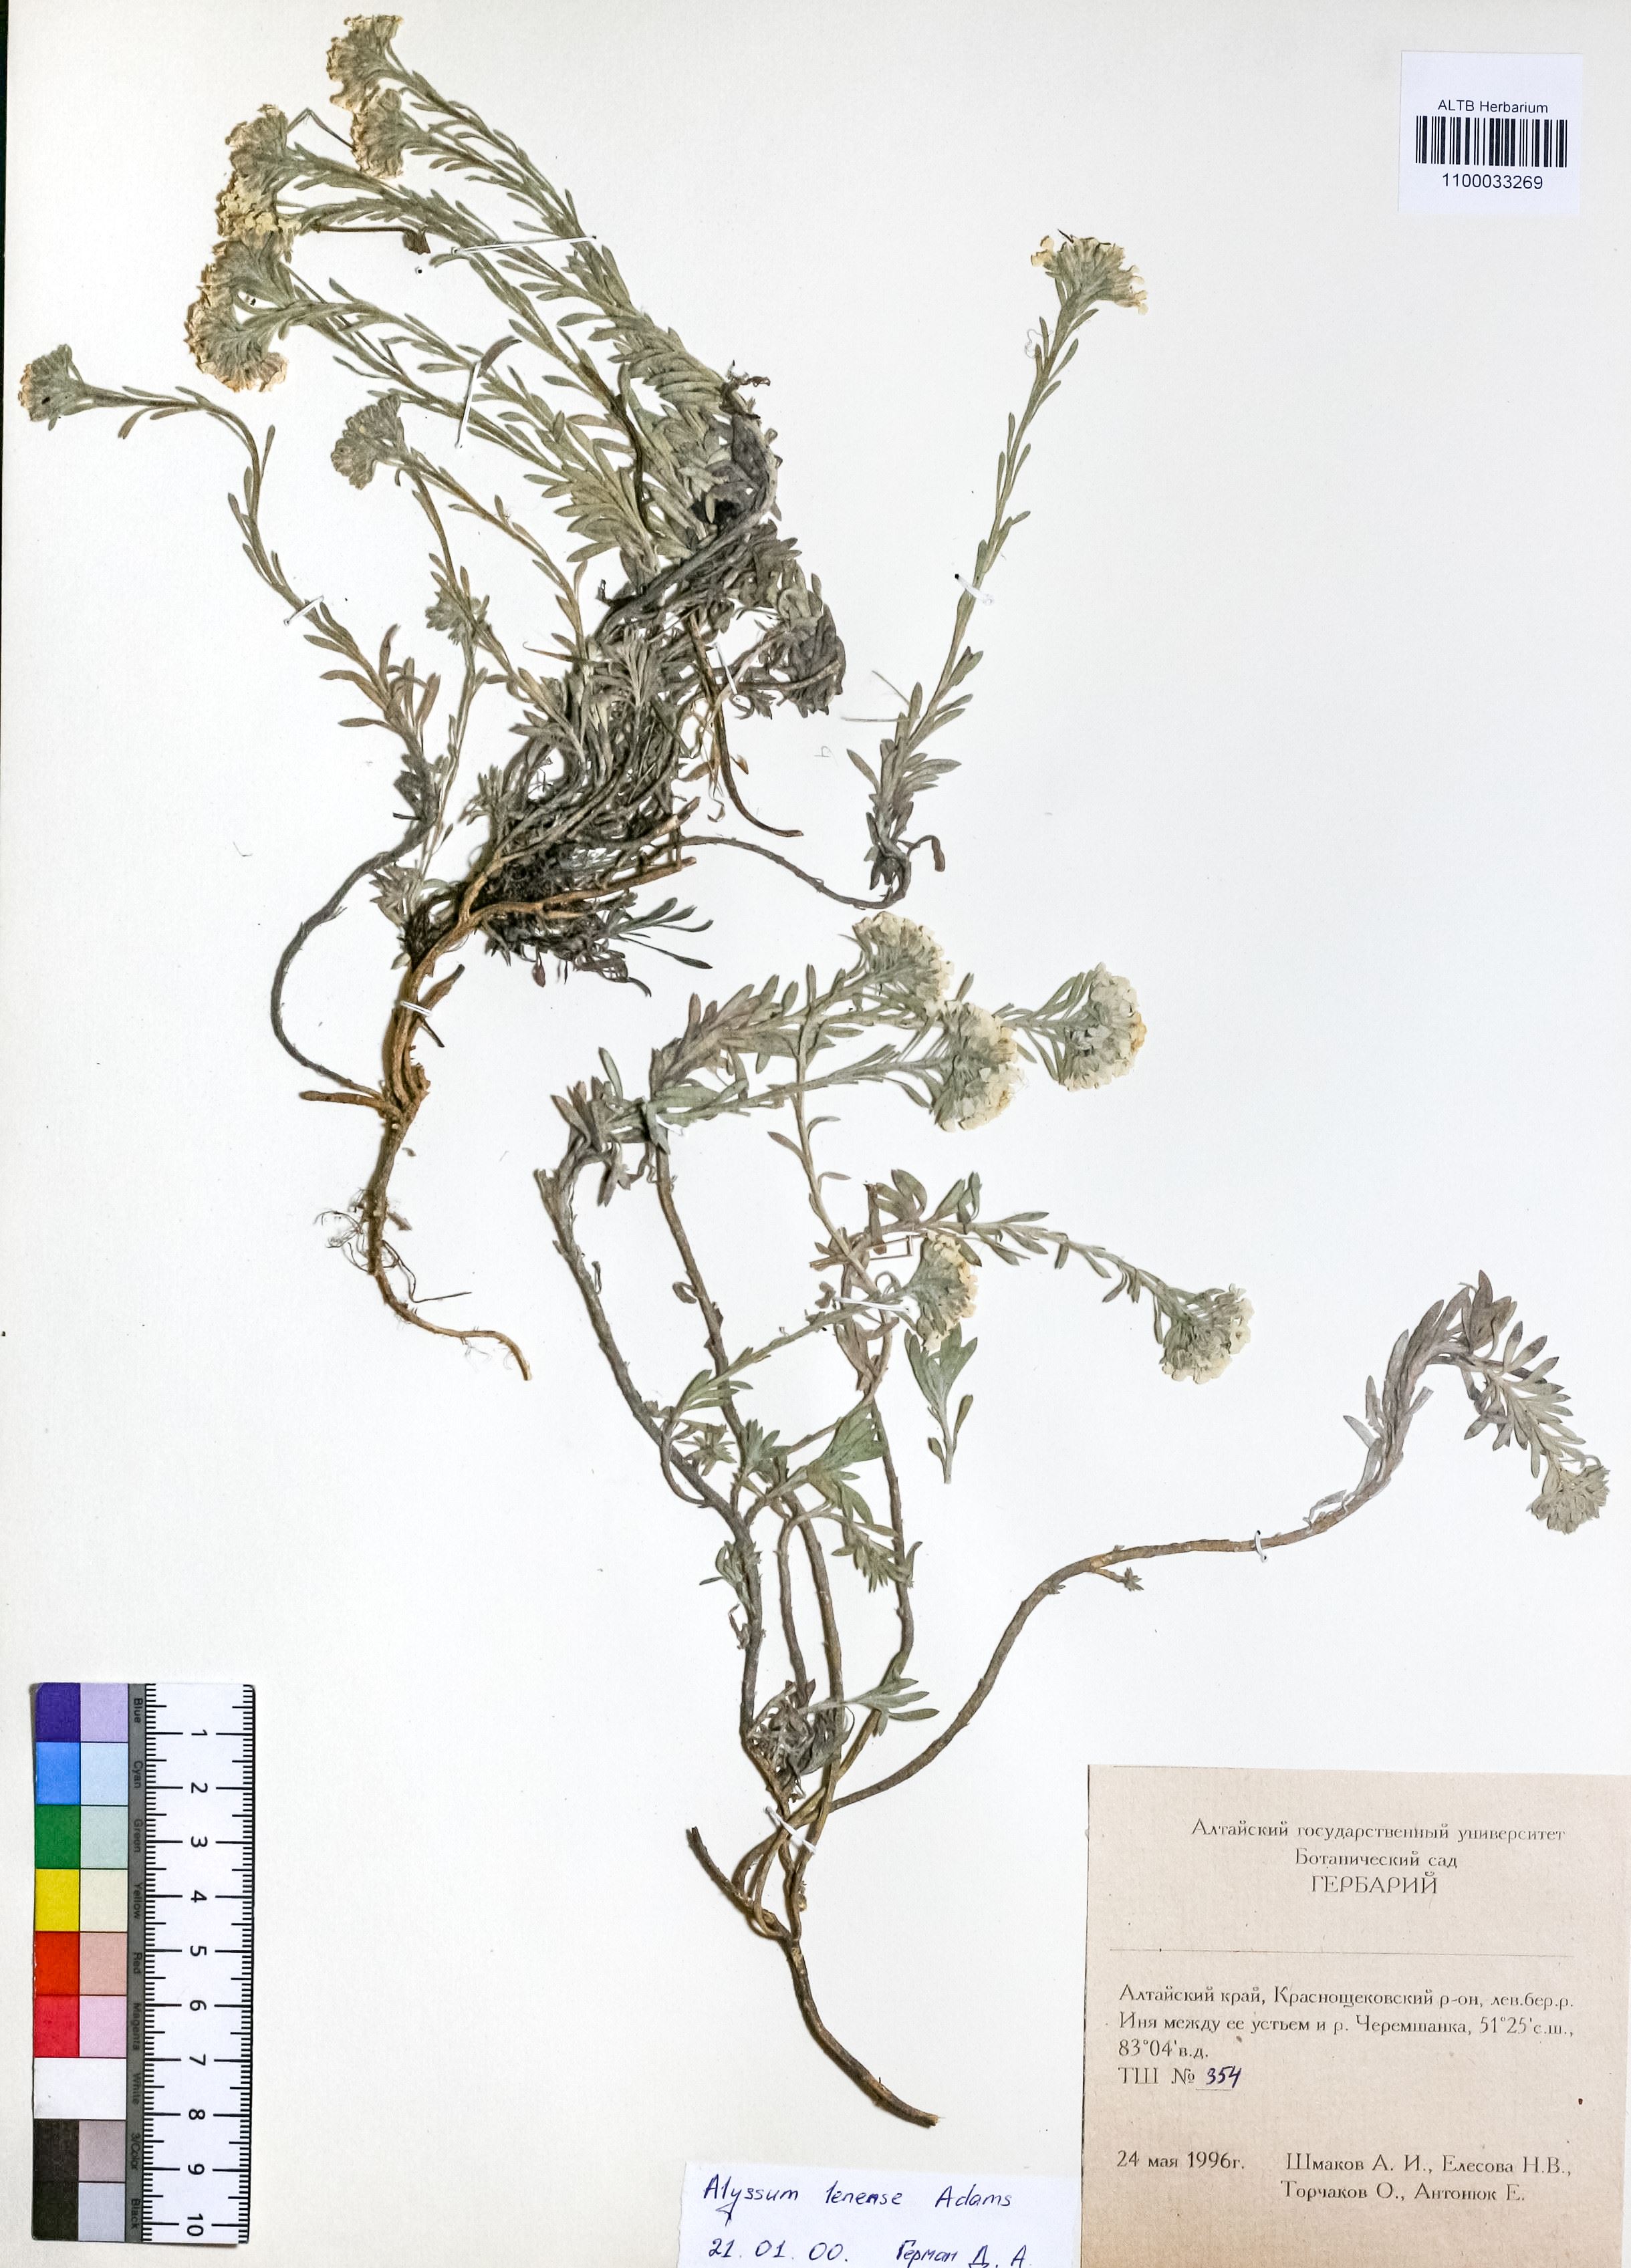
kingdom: Plantae
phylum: Tracheophyta
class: Magnoliopsida
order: Brassicales
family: Brassicaceae
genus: Alyssum
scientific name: Alyssum lenense
